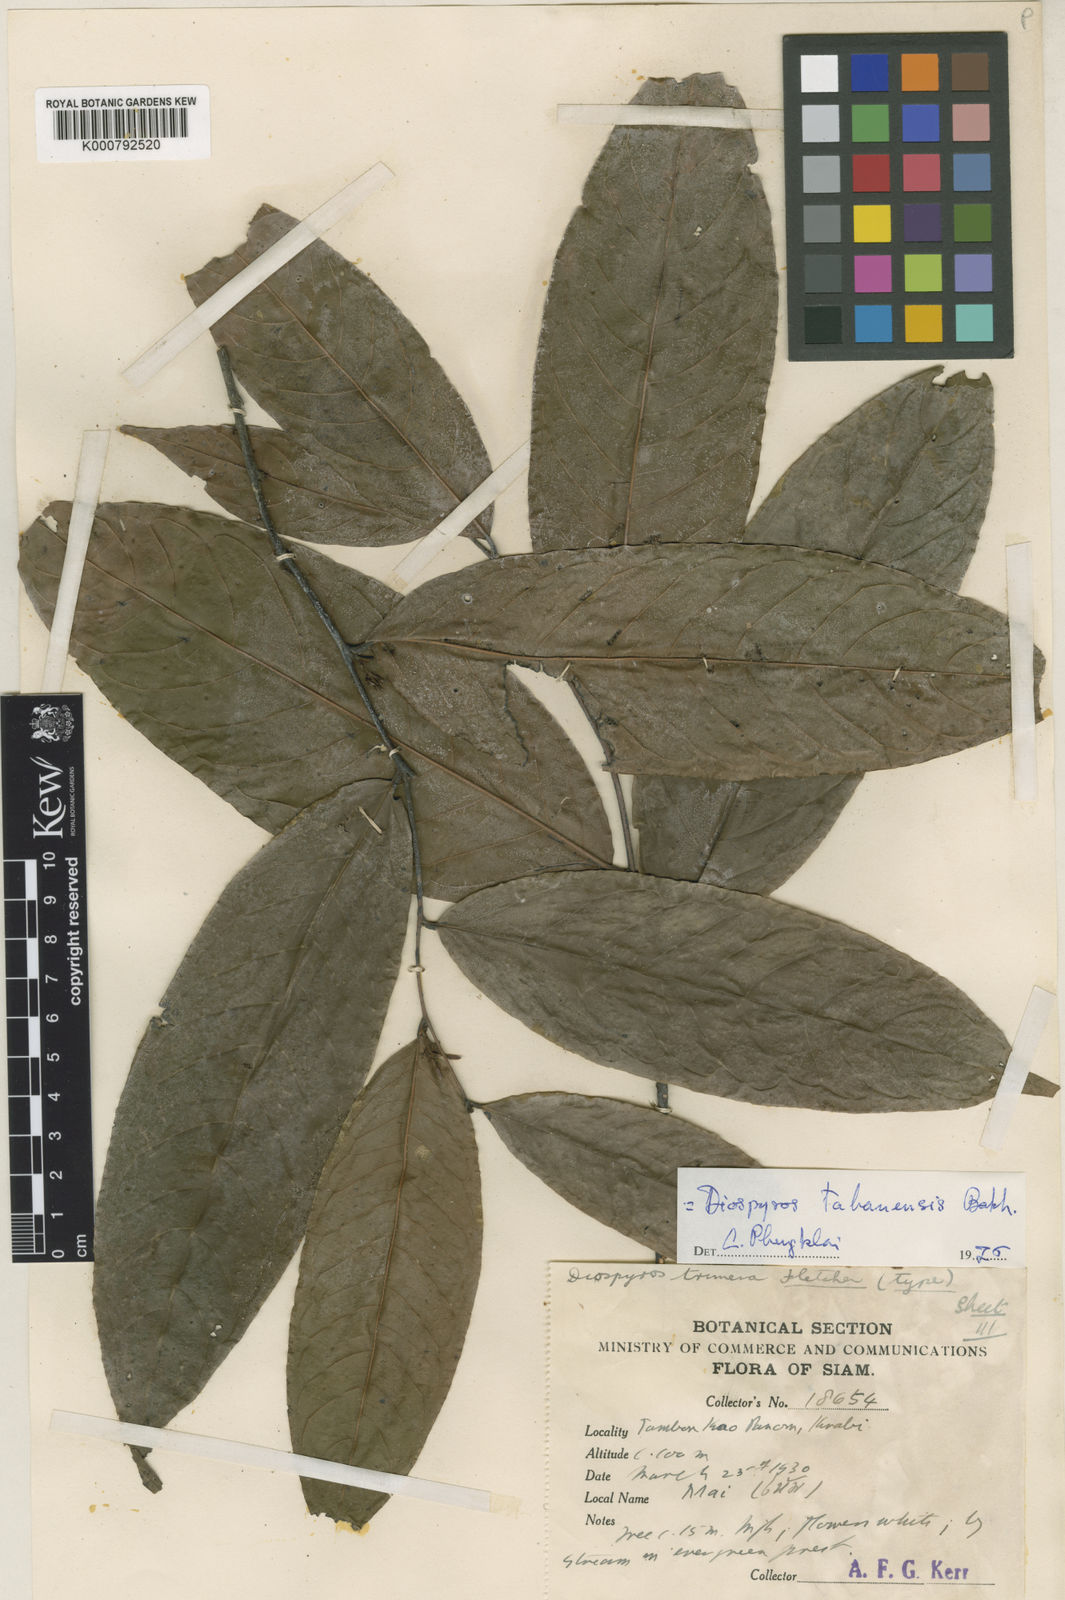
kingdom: Plantae
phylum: Tracheophyta
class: Magnoliopsida
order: Ericales
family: Ebenaceae
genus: Diospyros
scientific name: Diospyros andamanica
